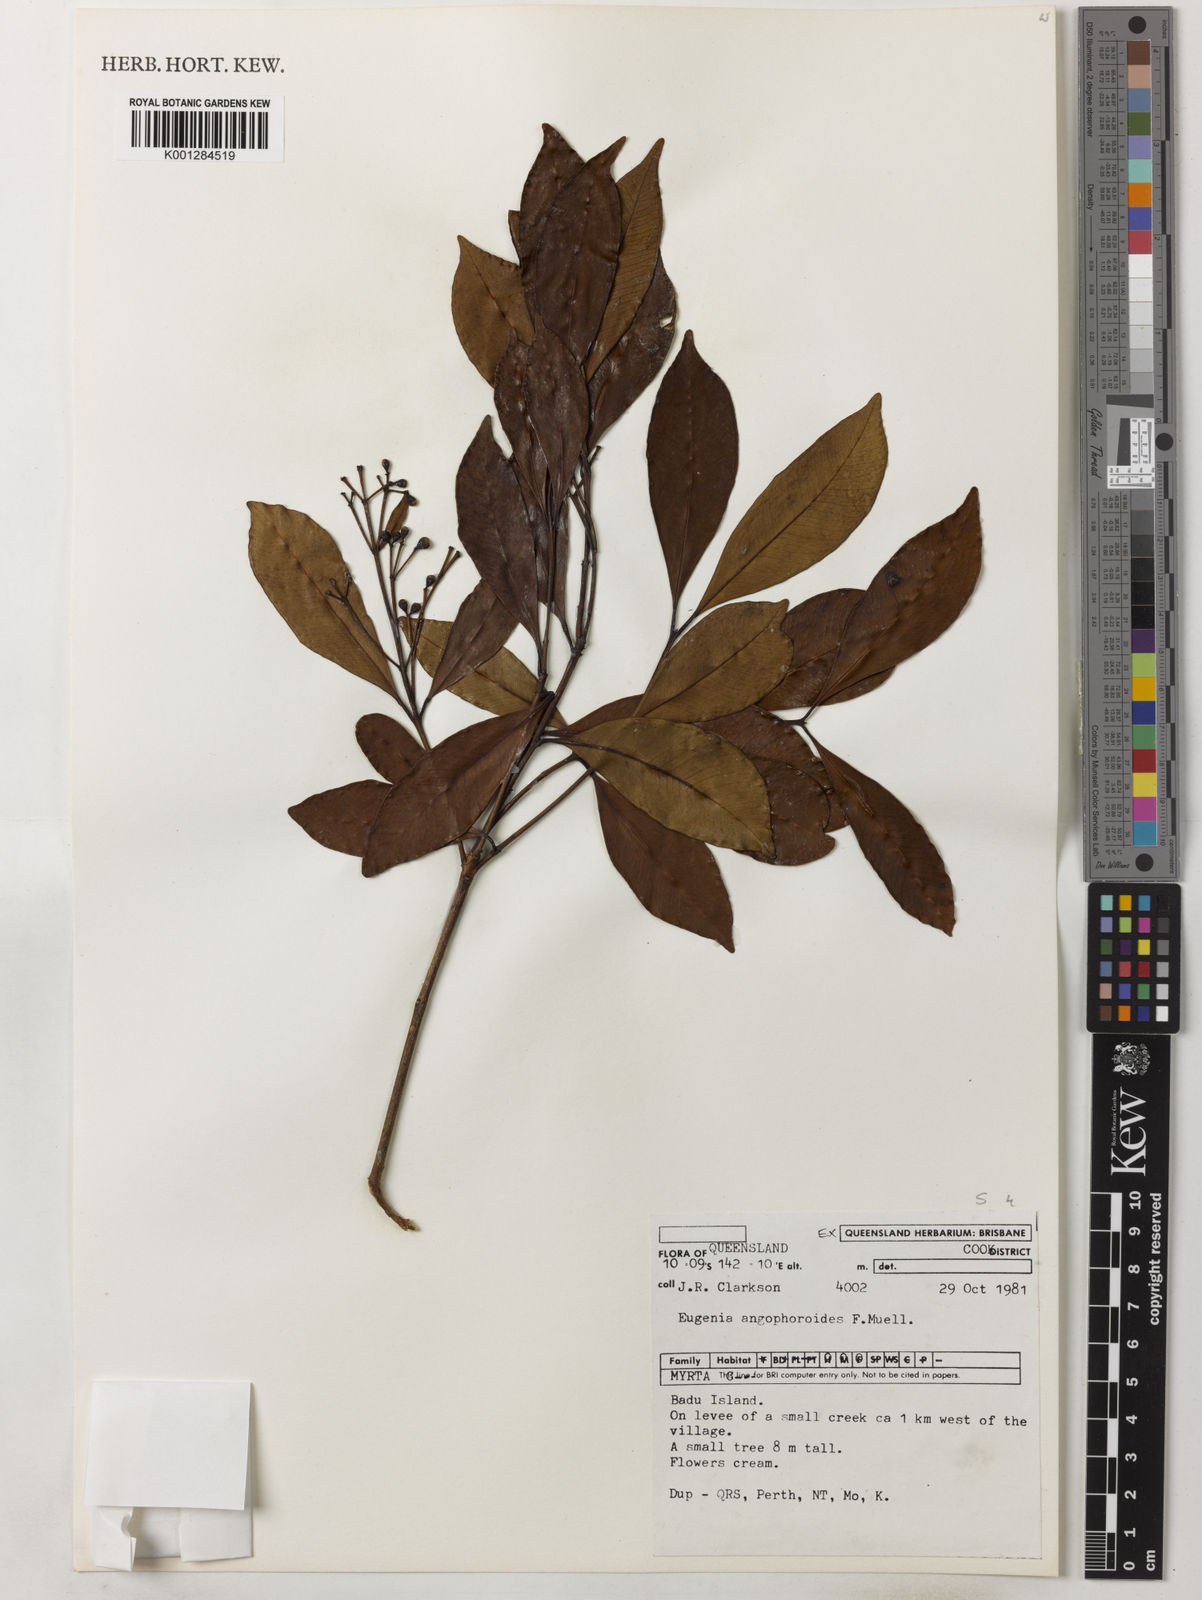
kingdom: Plantae
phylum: Tracheophyta
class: Magnoliopsida
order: Myrtales
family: Myrtaceae
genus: Syzygium
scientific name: Syzygium angophoroides
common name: Swamp satinash
